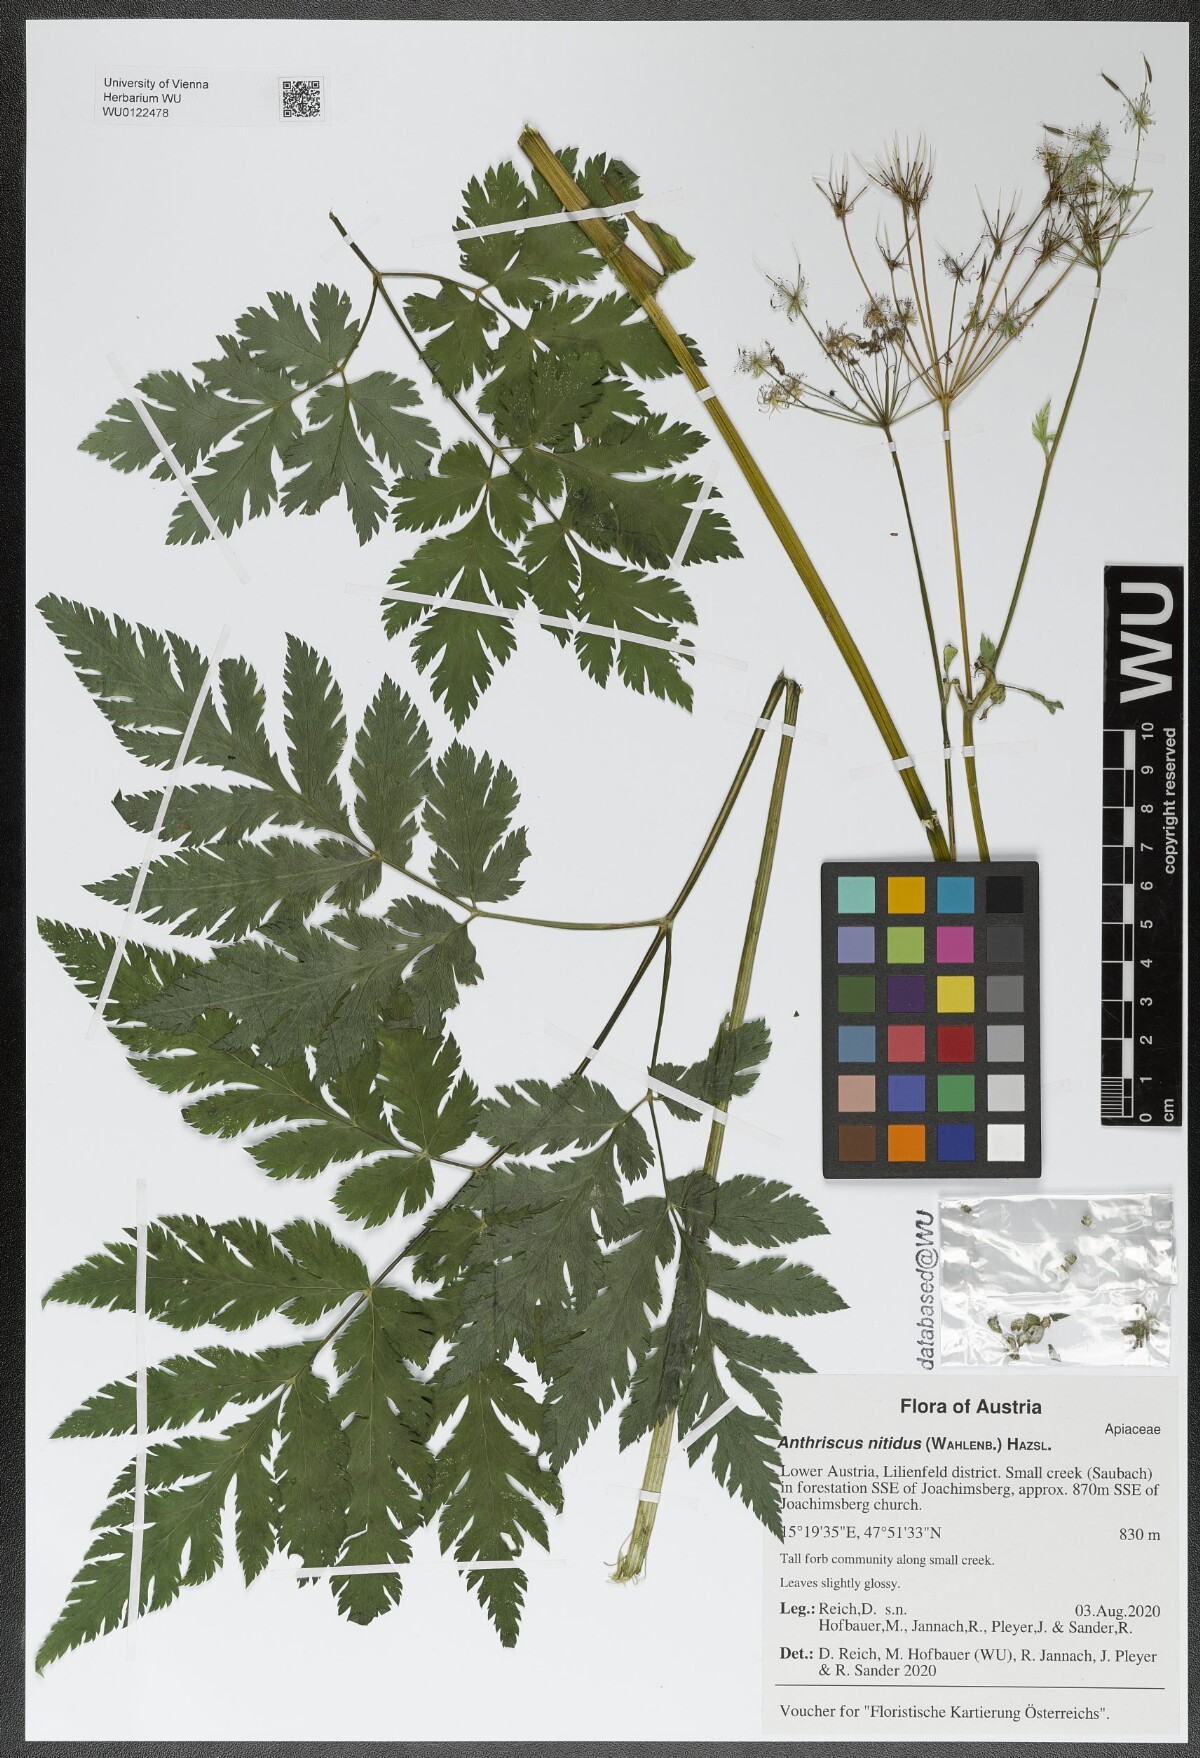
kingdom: Plantae
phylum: Tracheophyta
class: Magnoliopsida
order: Apiales
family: Apiaceae
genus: Anthriscus
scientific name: Anthriscus nitida
